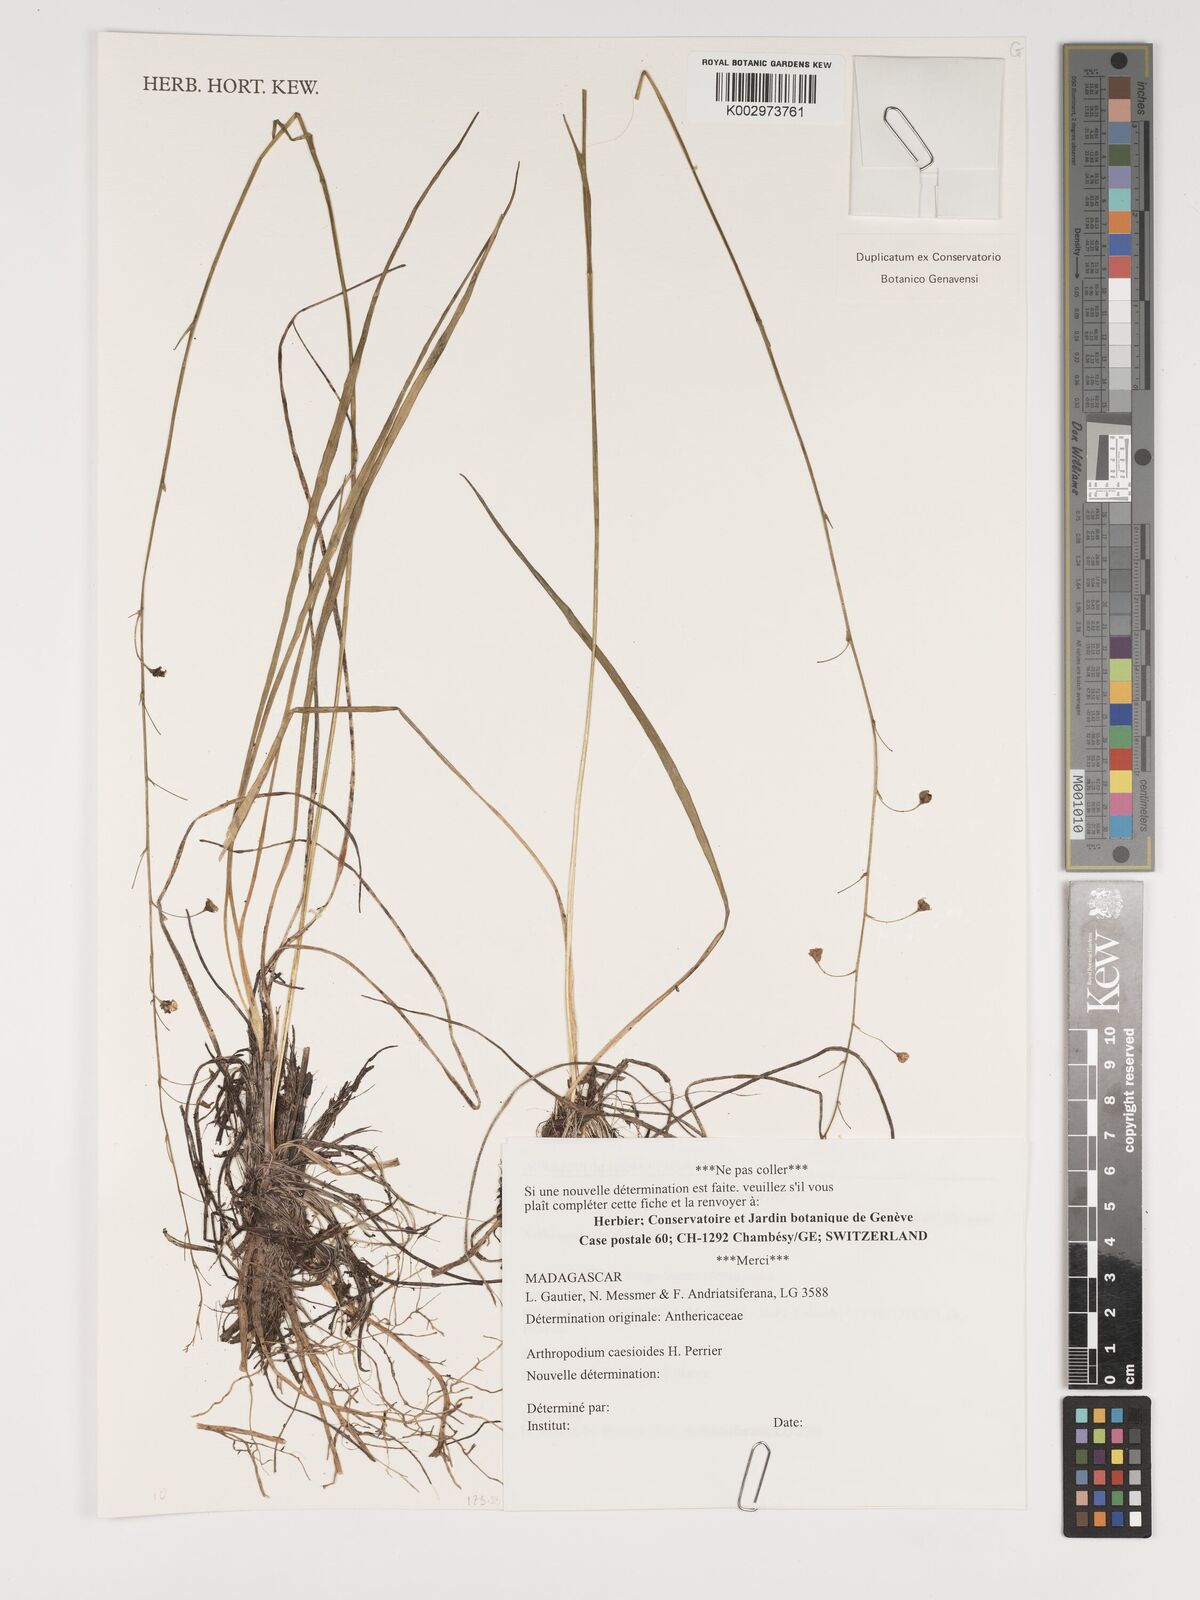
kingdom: Plantae
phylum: Tracheophyta
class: Liliopsida
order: Asparagales
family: Asparagaceae
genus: Arthropodium
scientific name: Arthropodium caesioides
